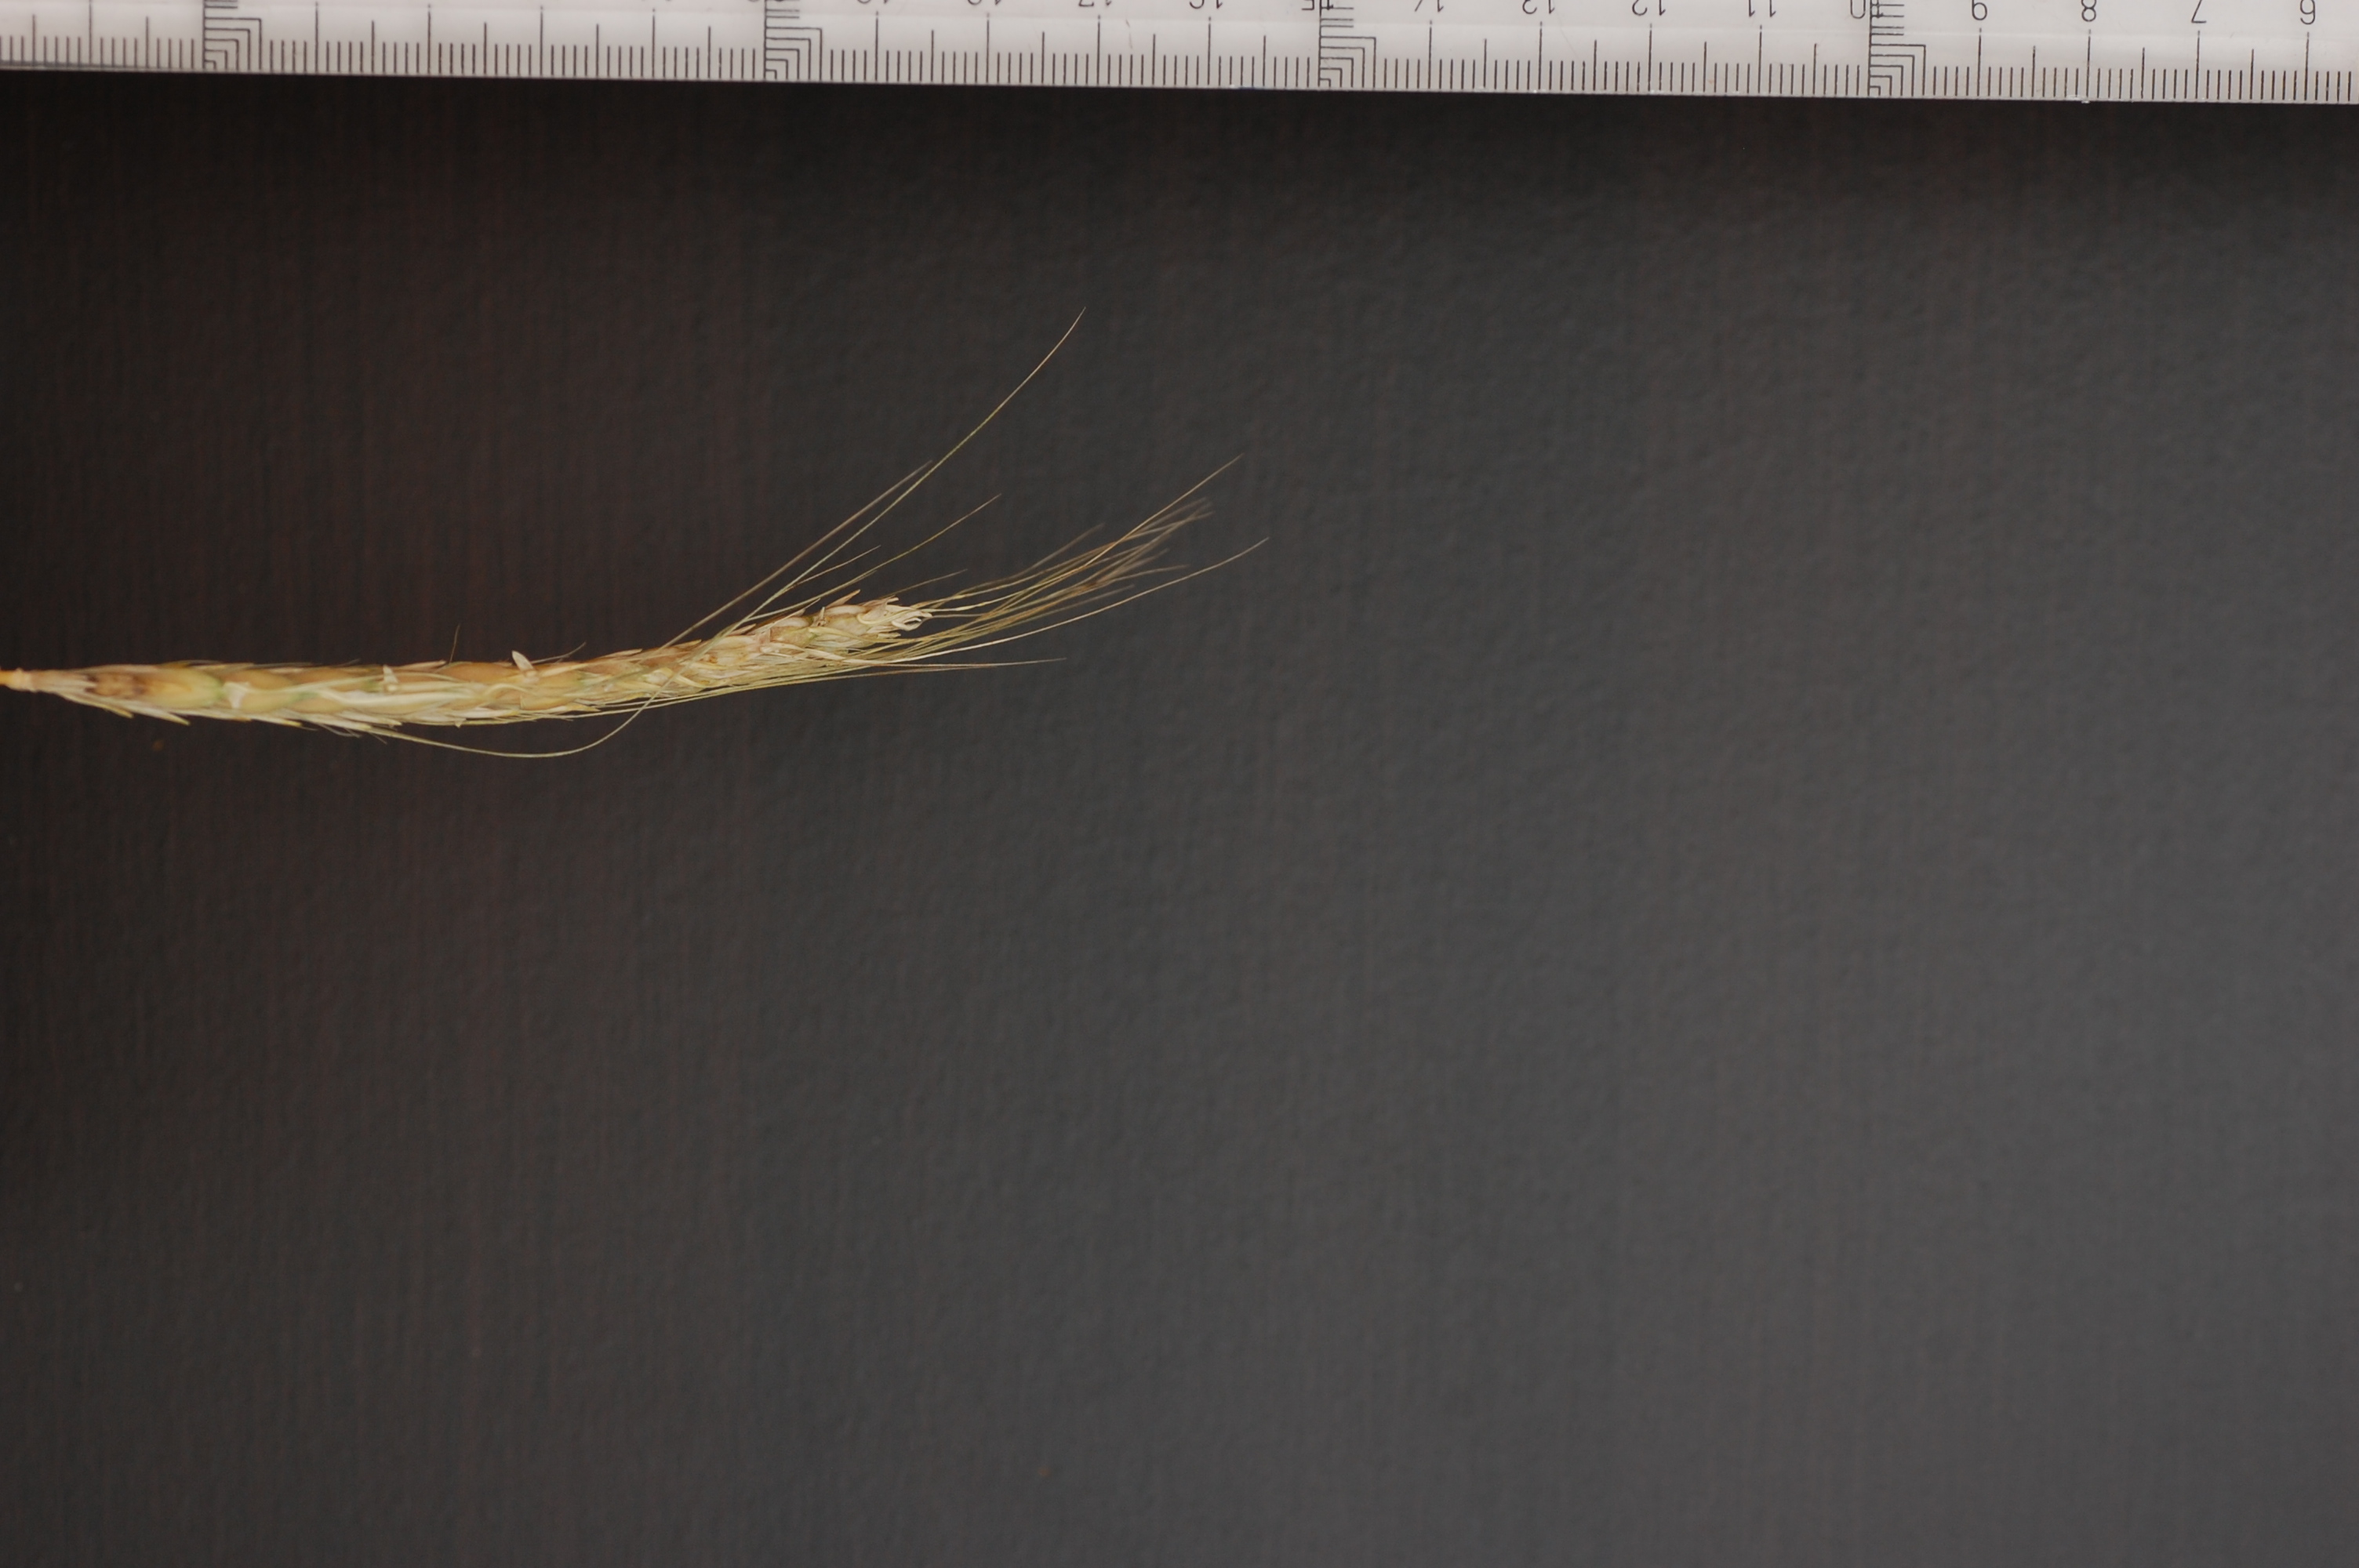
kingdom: Plantae
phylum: Tracheophyta
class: Liliopsida
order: Poales
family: Poaceae
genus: Hordeum
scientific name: Hordeum vulgare
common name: Common barley
